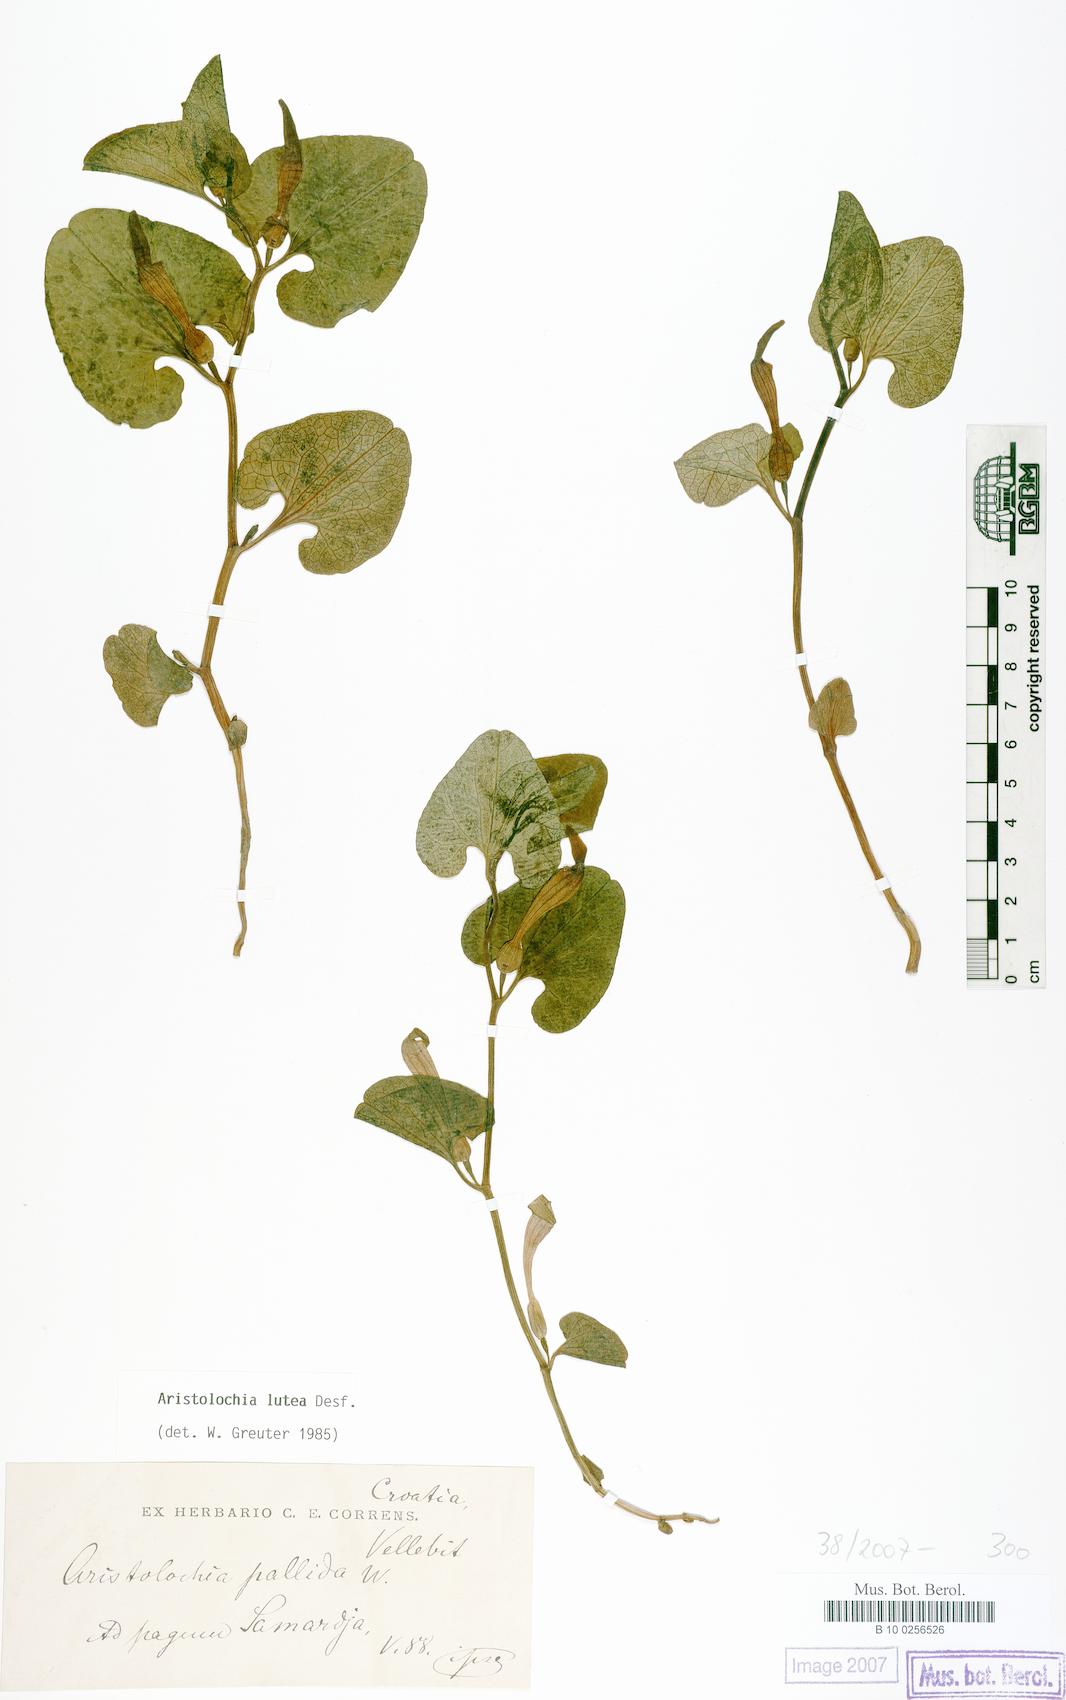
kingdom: Plantae
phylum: Tracheophyta
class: Magnoliopsida
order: Piperales
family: Aristolochiaceae
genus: Aristolochia
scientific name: Aristolochia lutea
